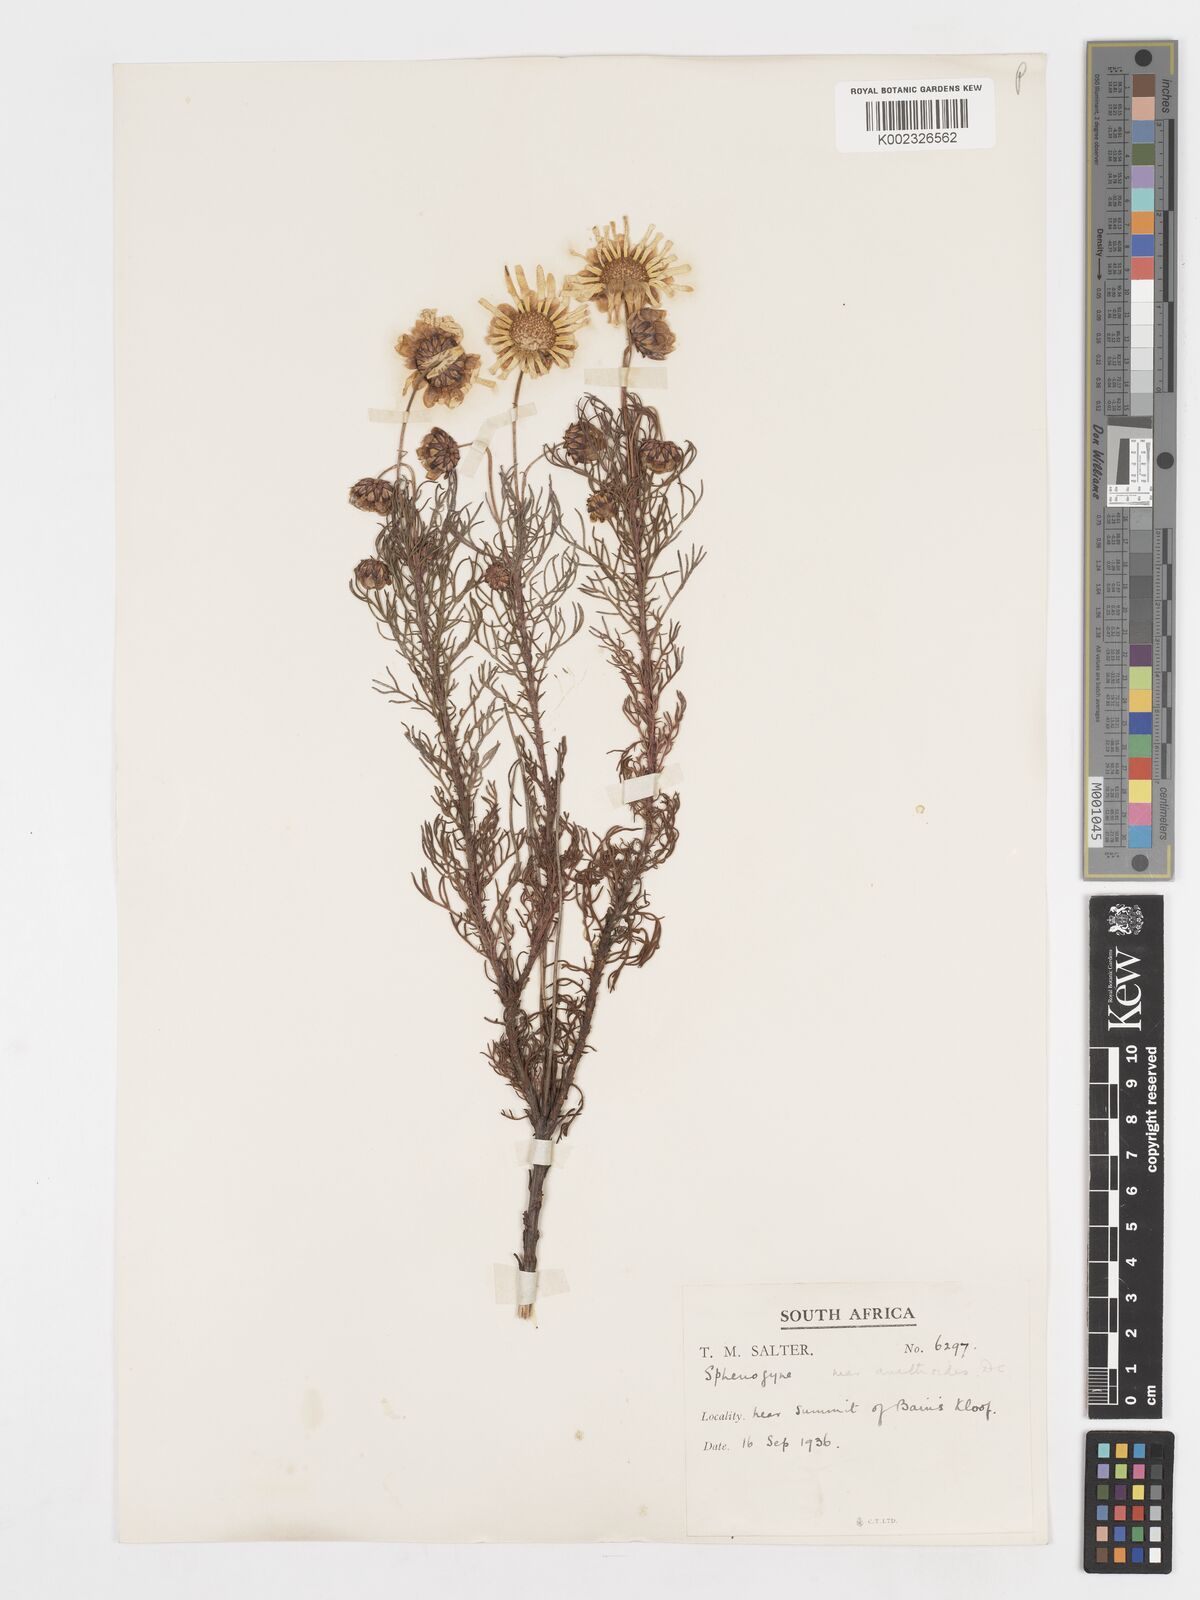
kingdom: Plantae
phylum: Tracheophyta
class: Magnoliopsida
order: Asterales
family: Asteraceae
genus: Ursinia
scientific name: Ursinia anethoides
